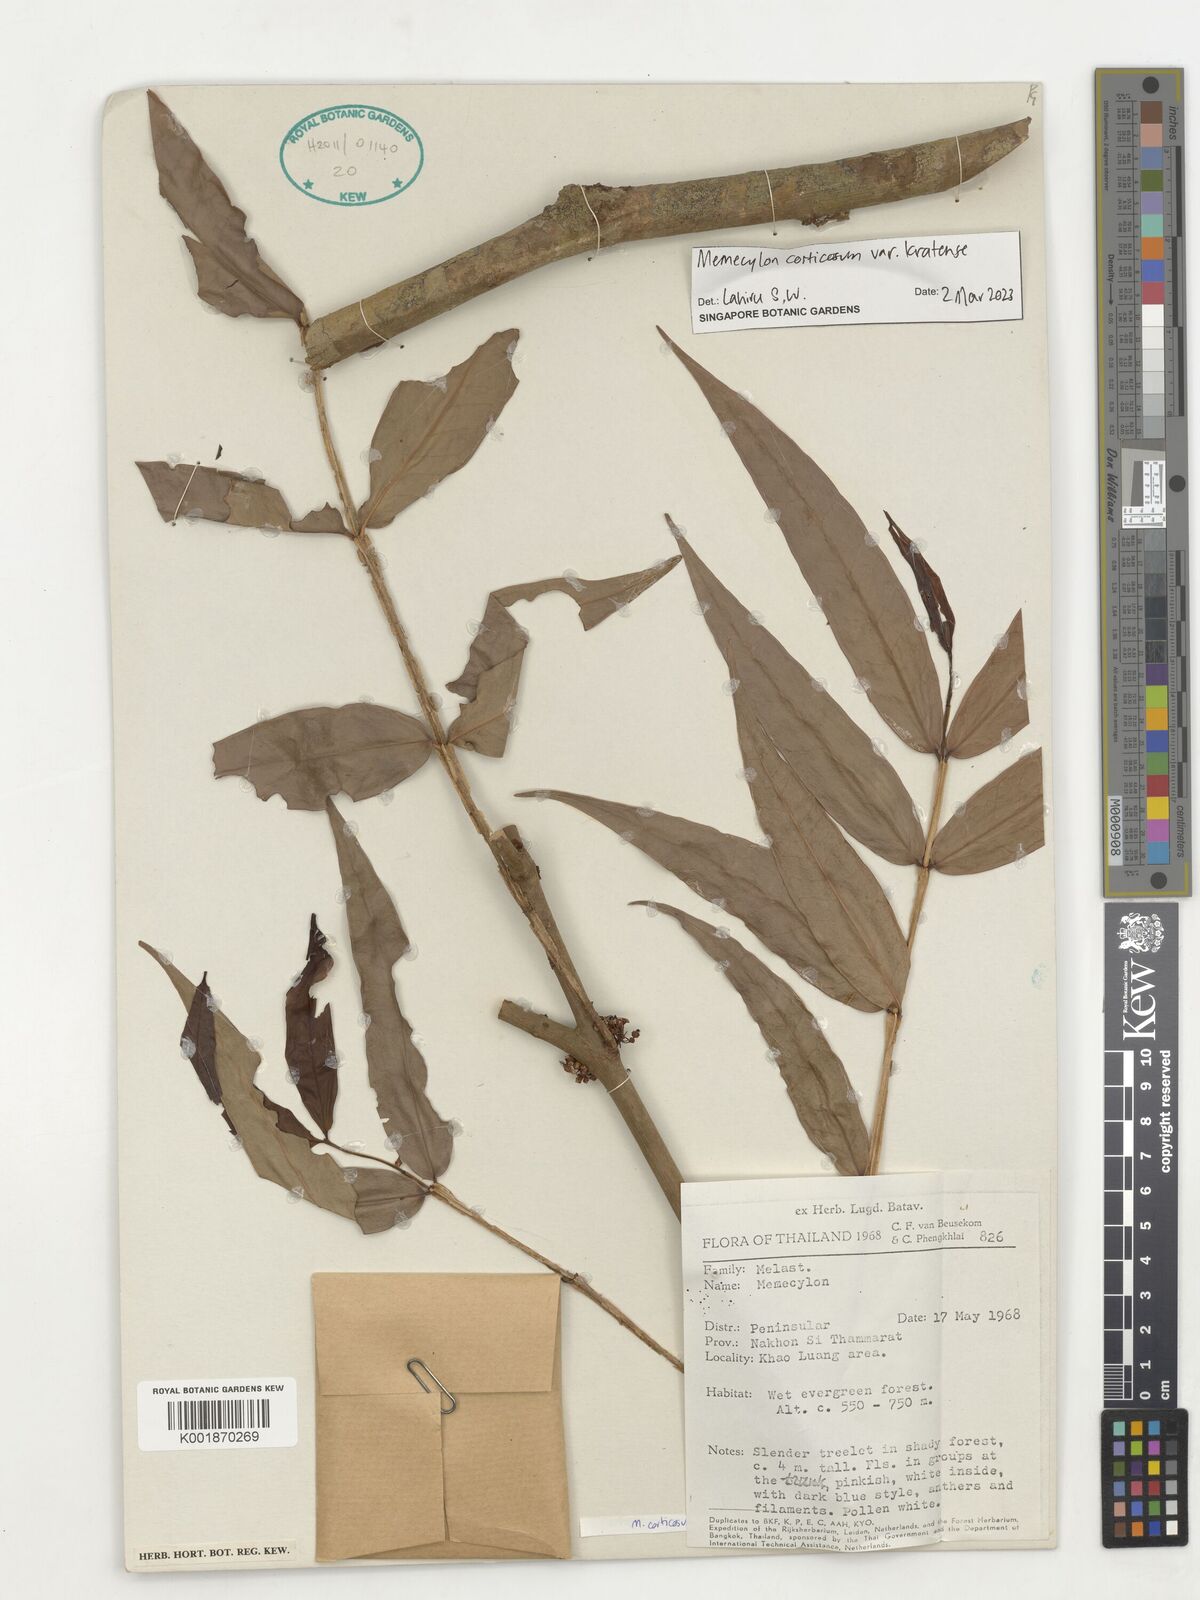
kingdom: Plantae
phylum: Tracheophyta
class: Magnoliopsida
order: Myrtales
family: Melastomataceae
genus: Memecylon
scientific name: Memecylon corticosum
